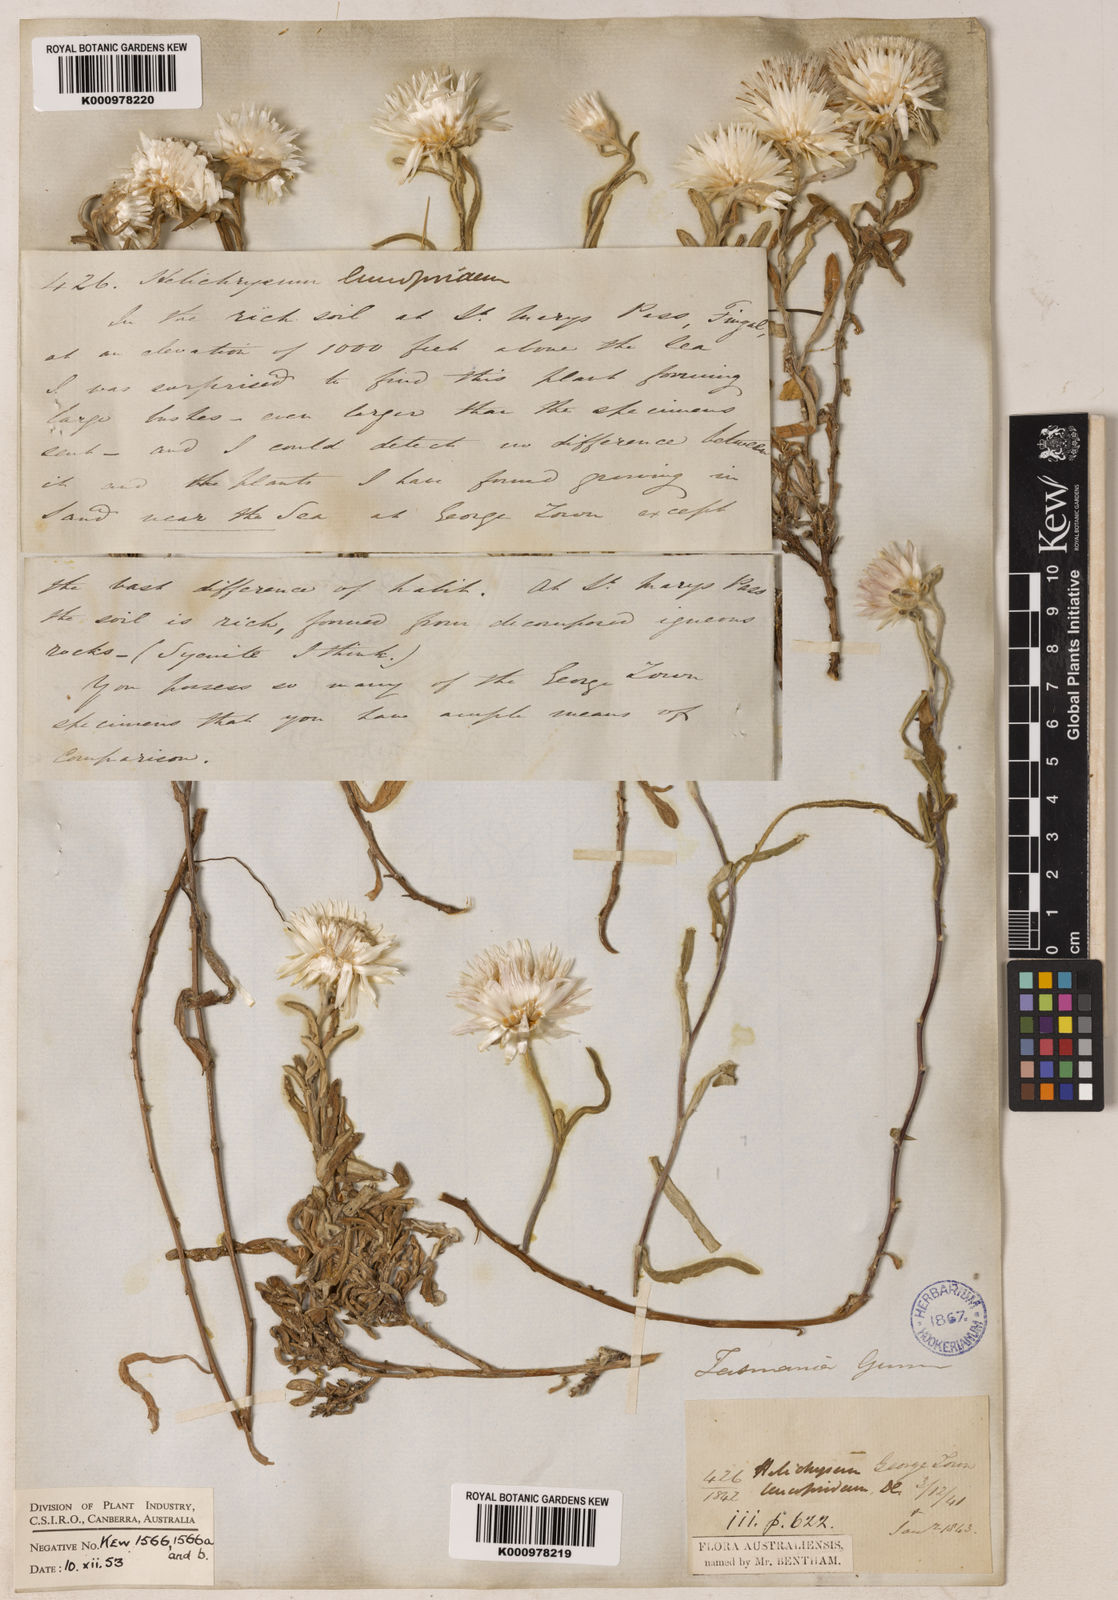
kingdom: Plantae
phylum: Tracheophyta
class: Magnoliopsida
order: Asterales
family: Asteraceae
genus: Helichrysum
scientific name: Helichrysum leucopsideum
